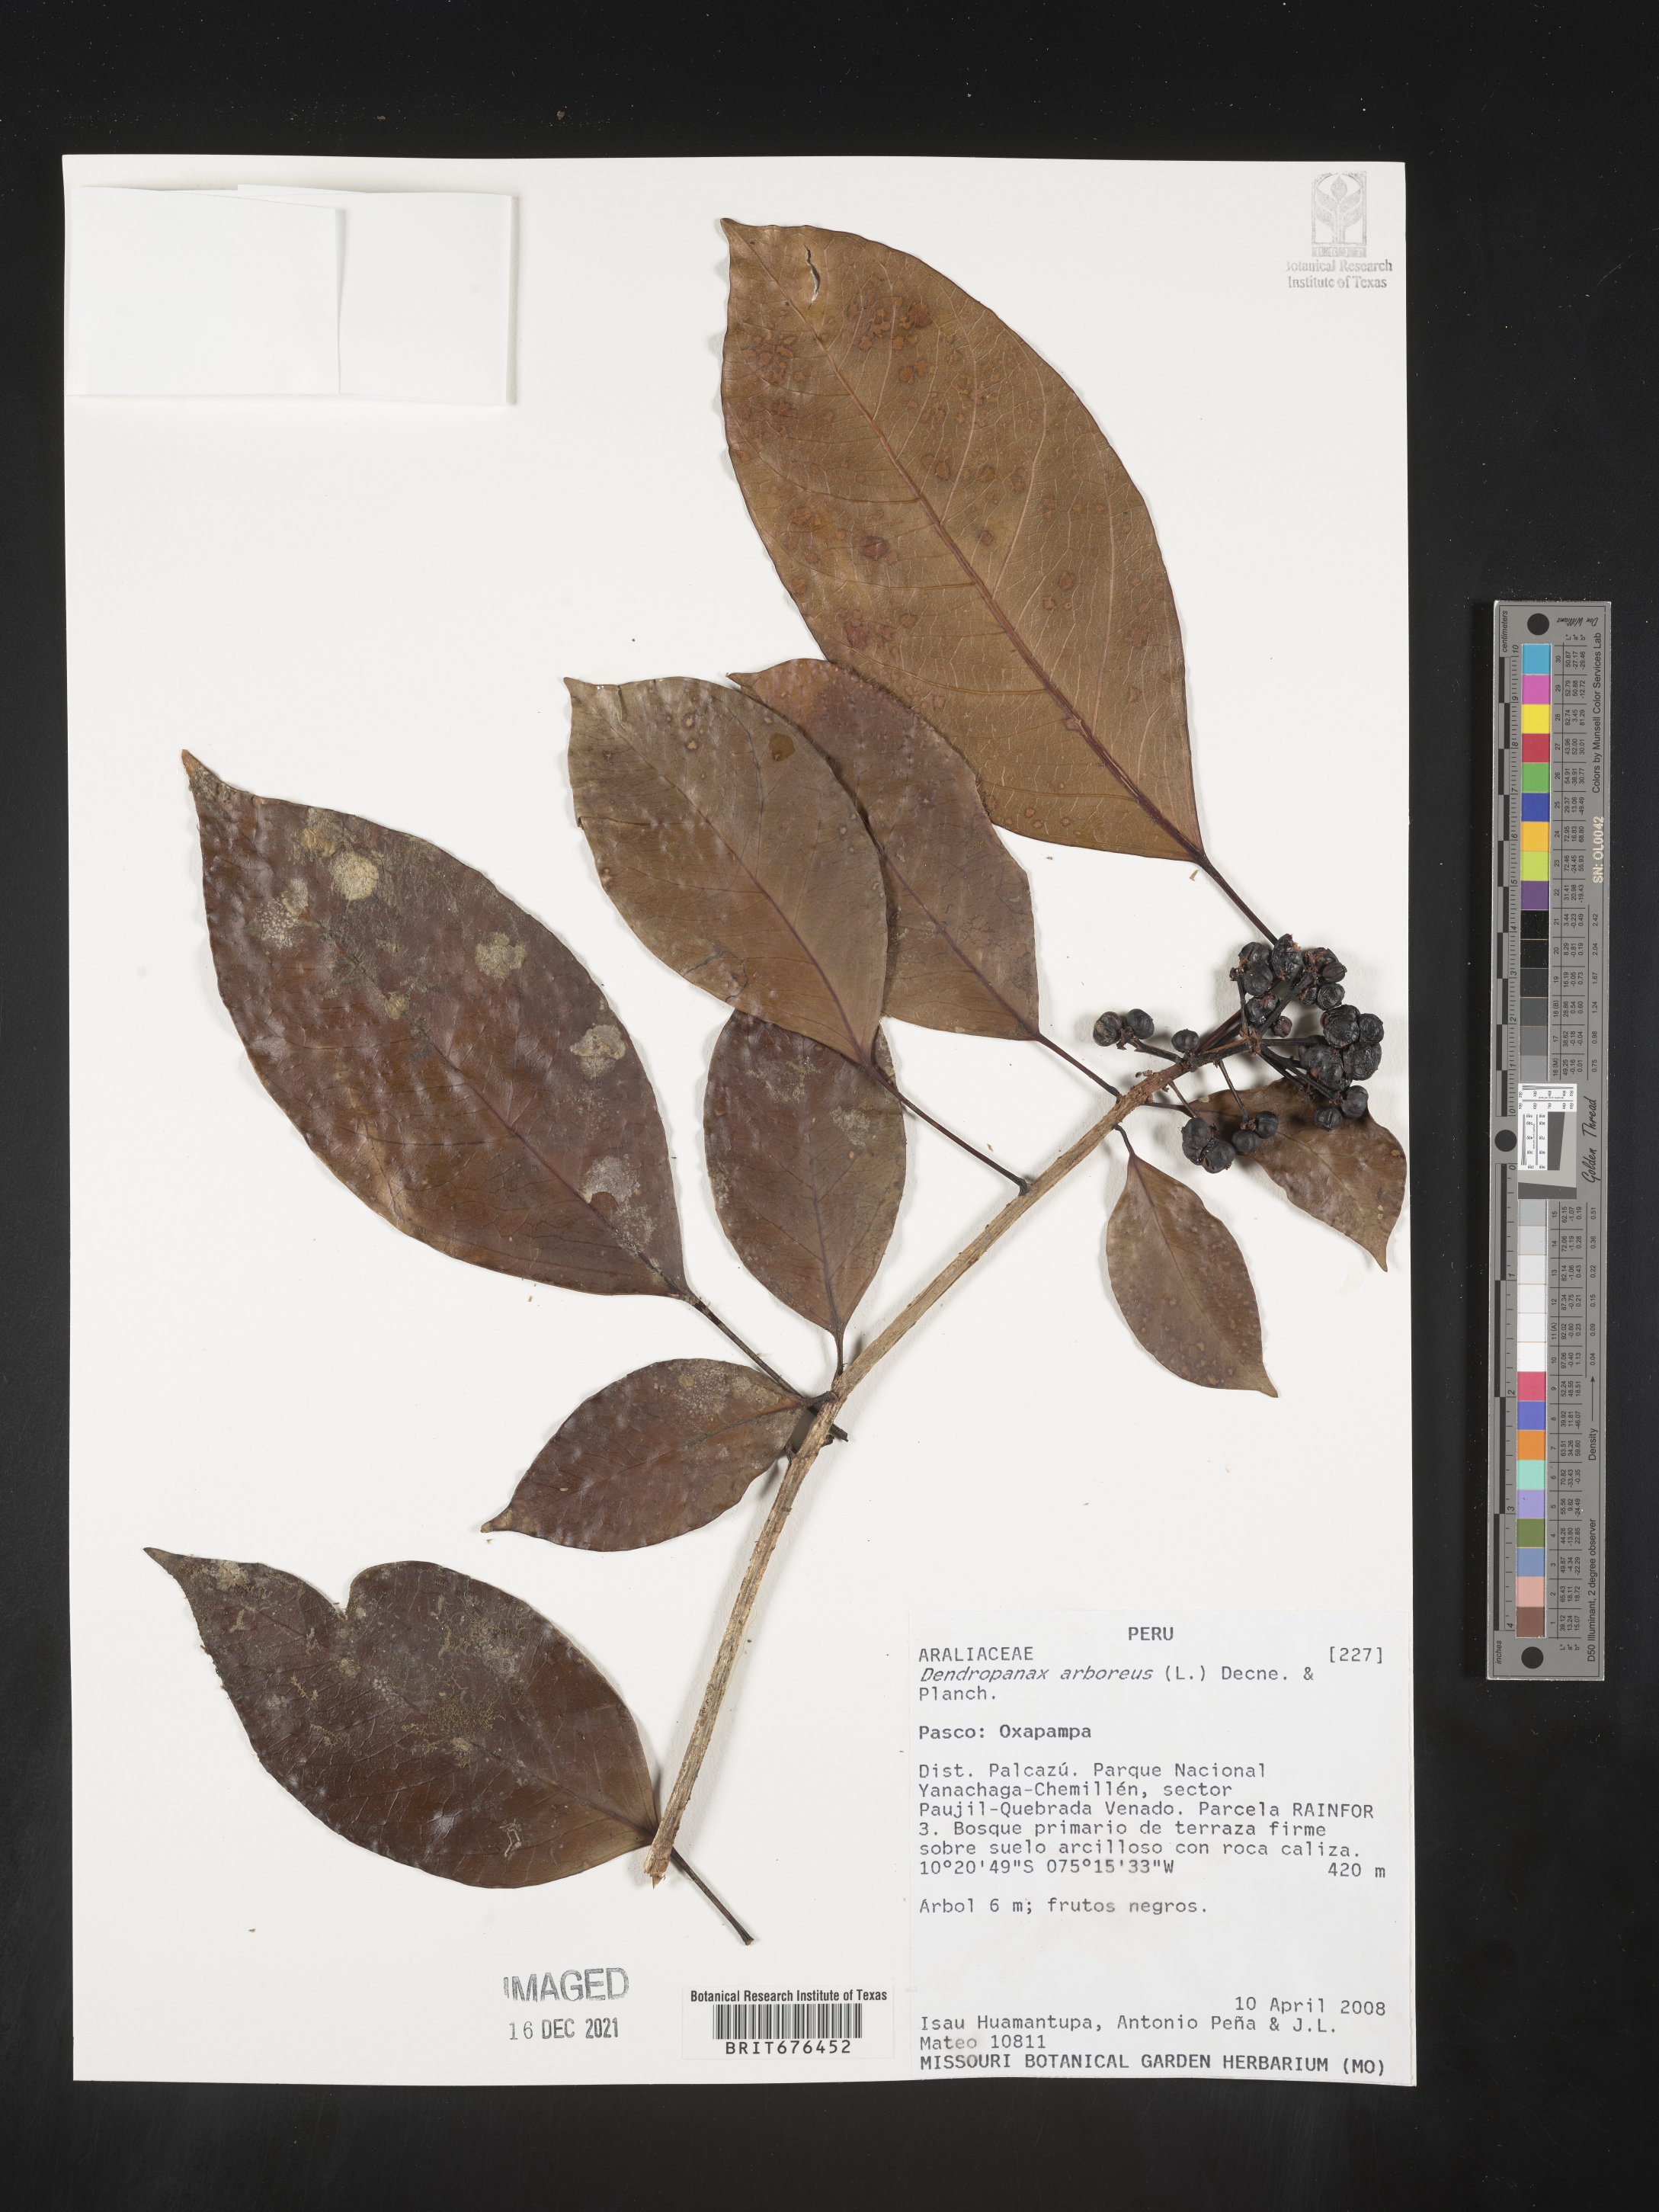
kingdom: Plantae
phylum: Tracheophyta
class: Magnoliopsida
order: Apiales
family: Araliaceae
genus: Dendropanax
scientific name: Dendropanax
